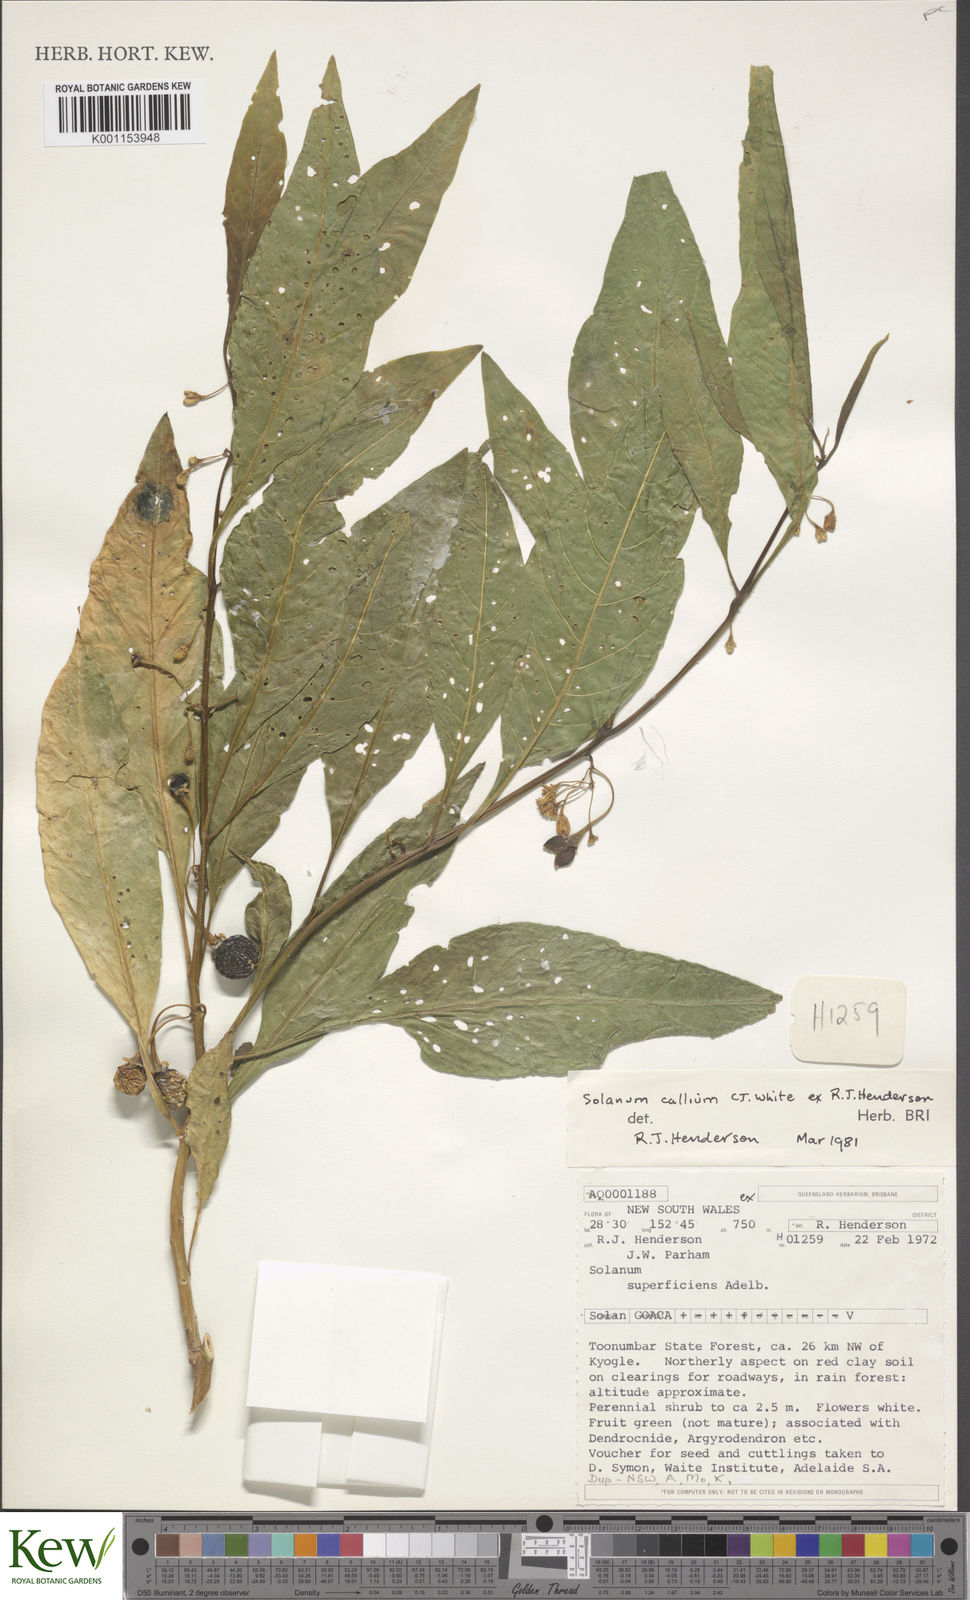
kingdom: Plantae
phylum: Tracheophyta
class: Magnoliopsida
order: Solanales
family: Solanaceae
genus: Solanum
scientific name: Solanum spirale
